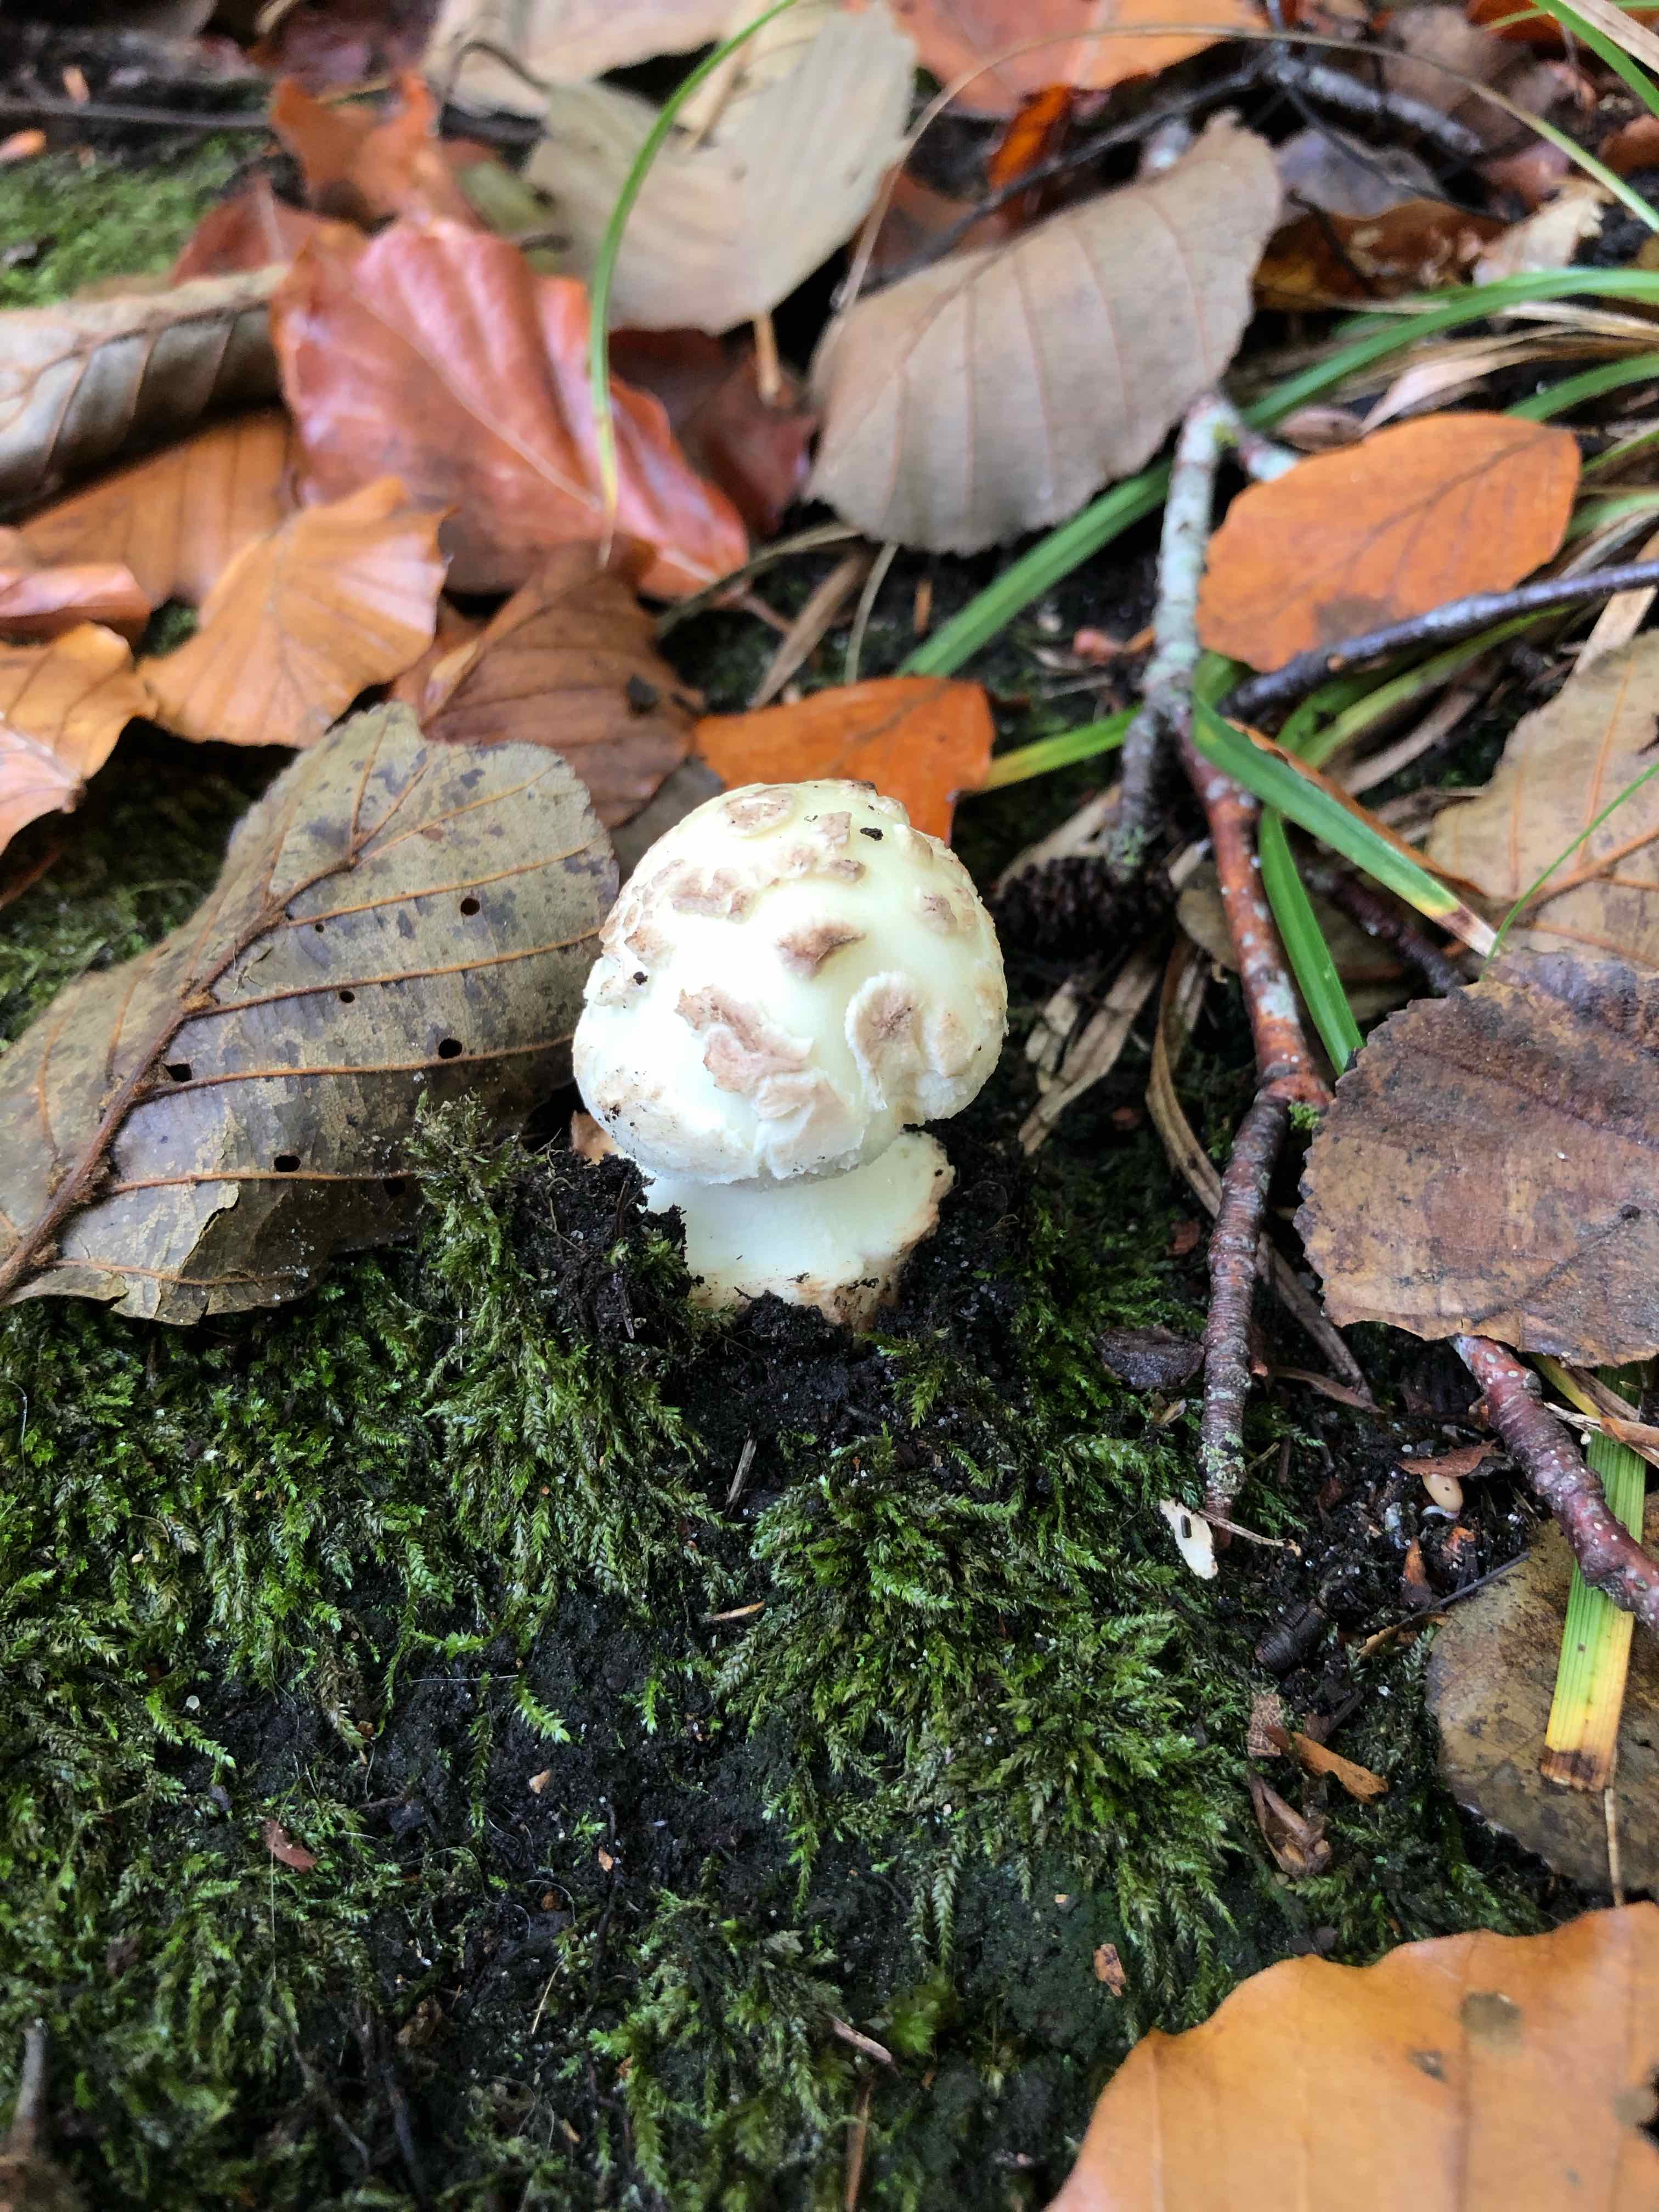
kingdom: Fungi
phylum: Basidiomycota
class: Agaricomycetes
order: Agaricales
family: Amanitaceae
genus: Amanita
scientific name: Amanita citrina
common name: kugleknoldet fluesvamp
